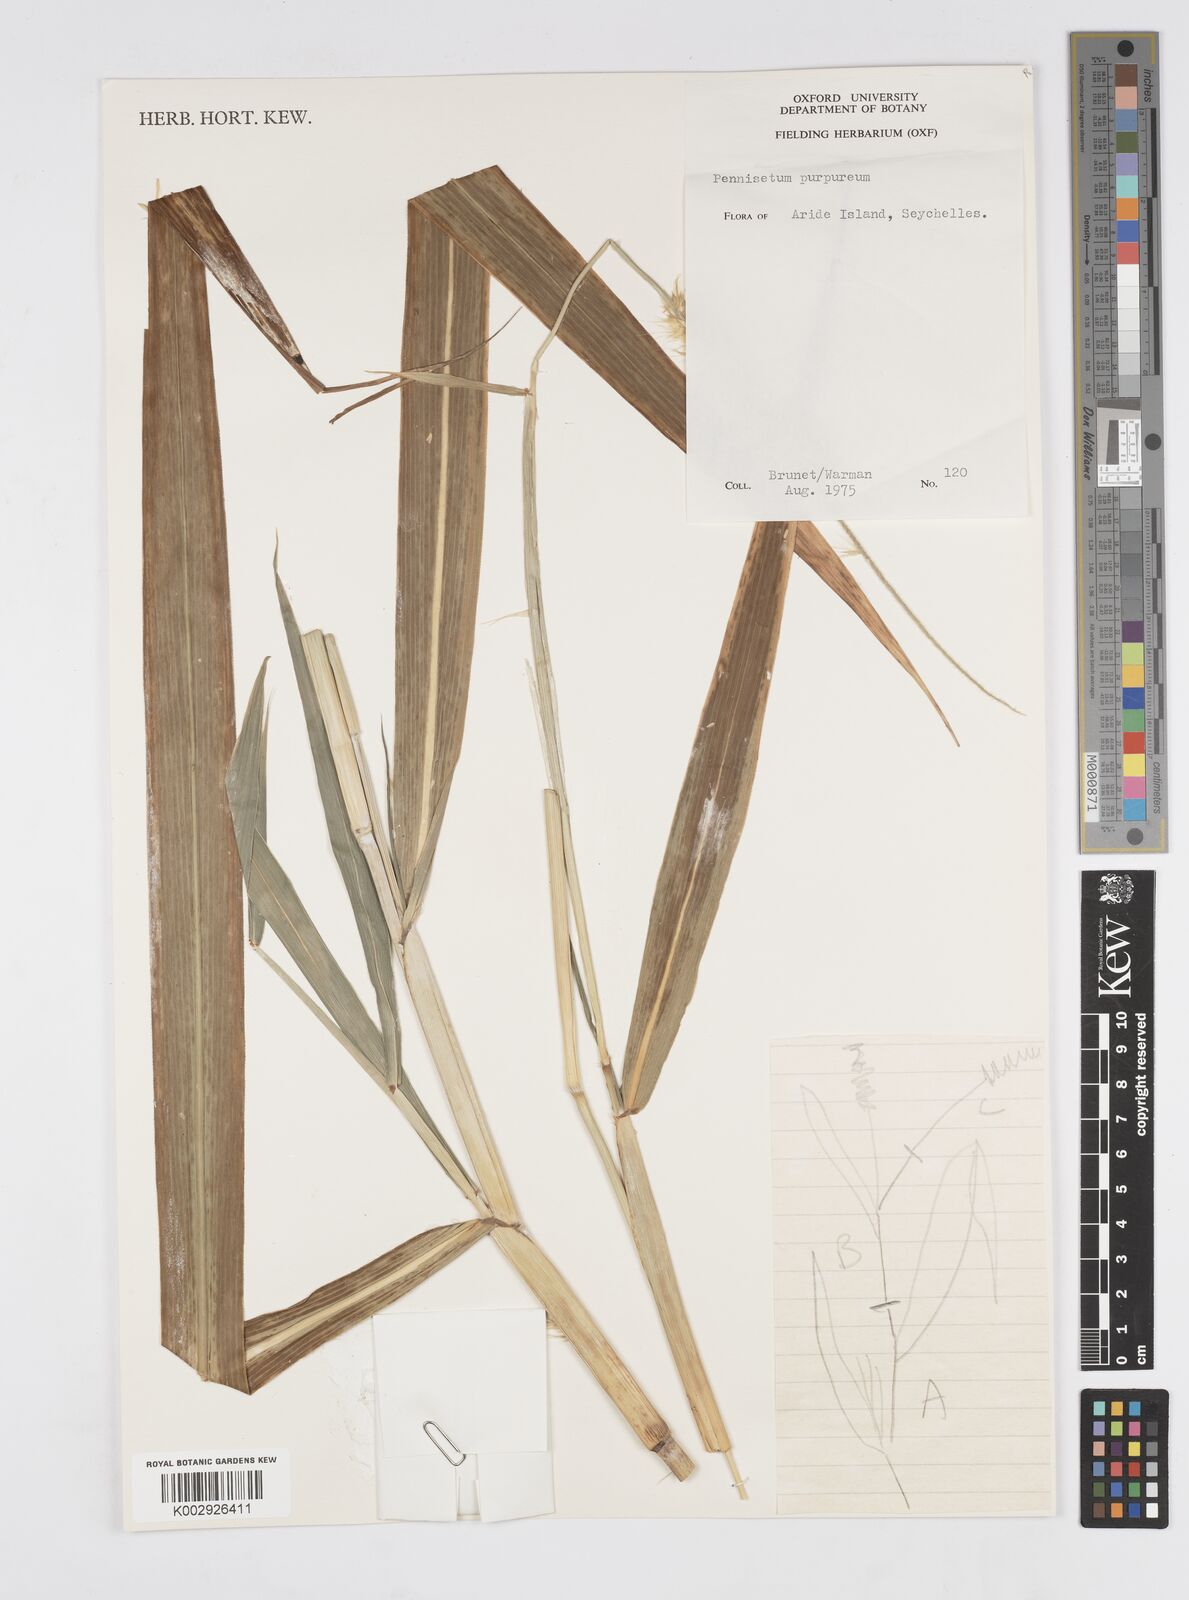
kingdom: Plantae
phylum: Tracheophyta
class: Liliopsida
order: Poales
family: Poaceae
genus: Cenchrus
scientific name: Cenchrus purpureus
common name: Elephant grass
